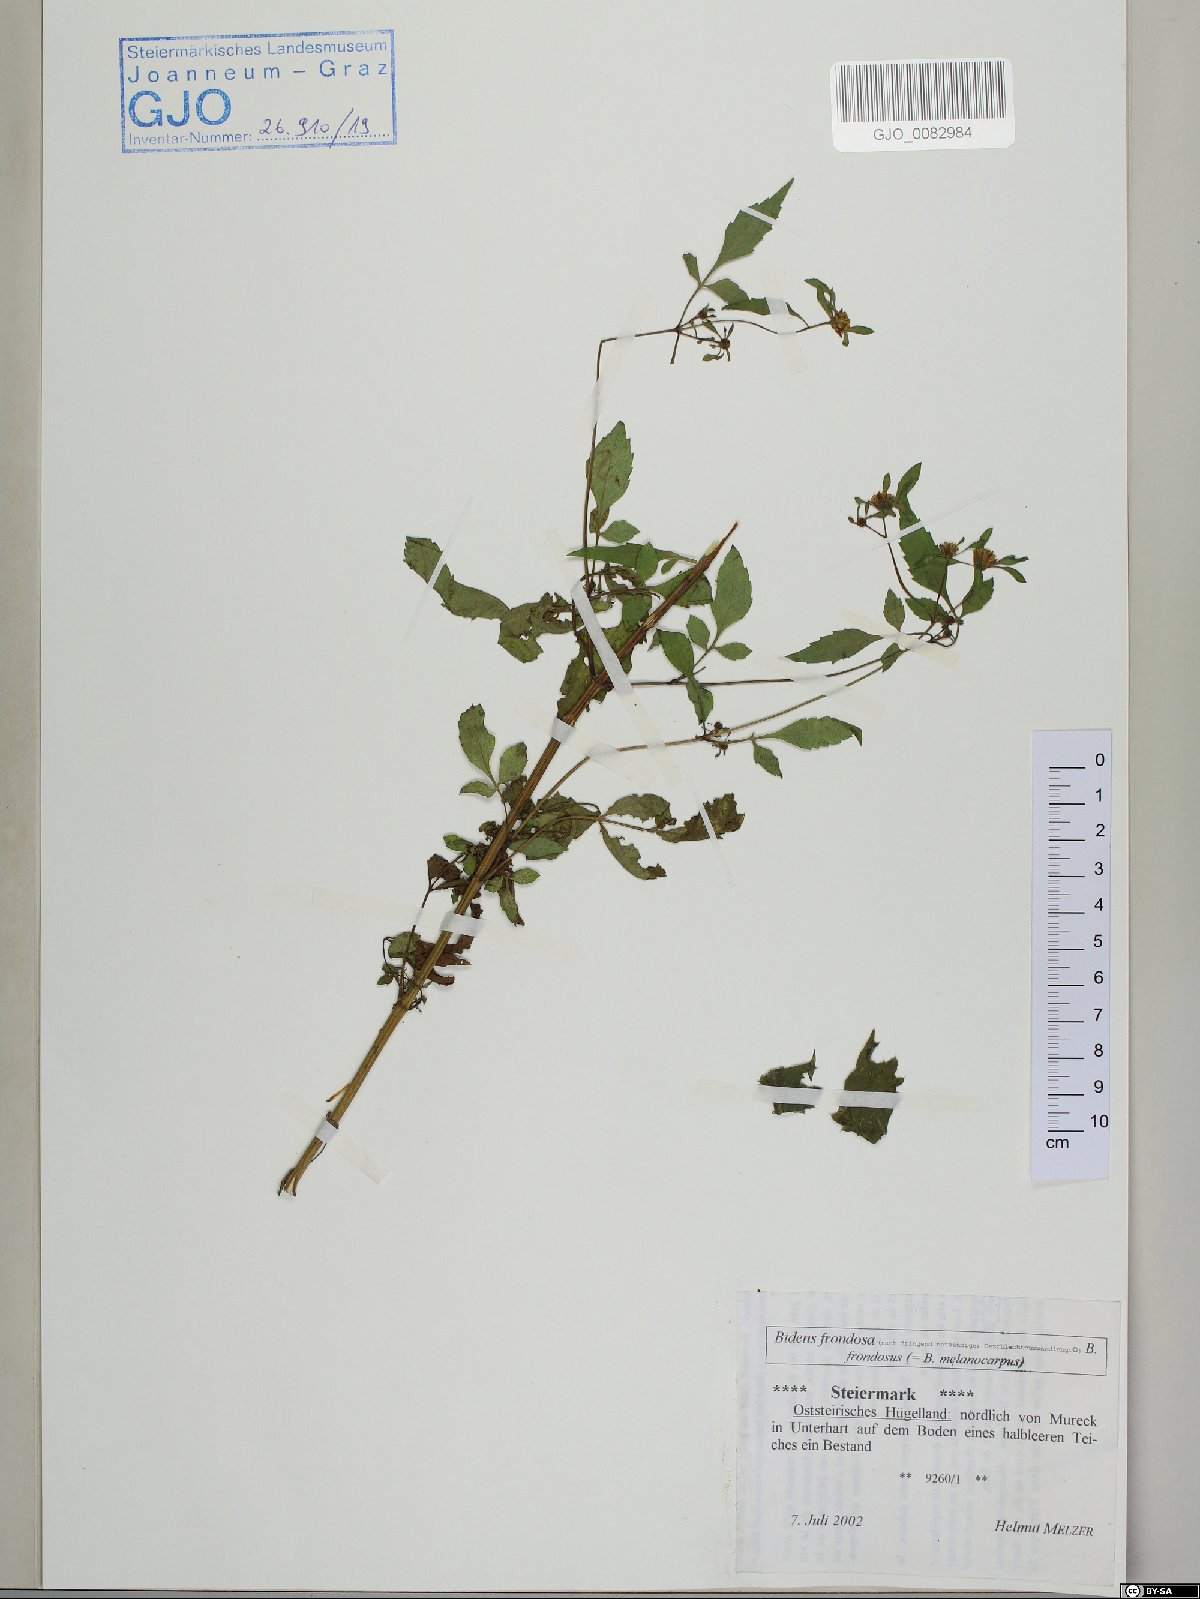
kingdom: Plantae
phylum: Tracheophyta
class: Magnoliopsida
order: Asterales
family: Asteraceae
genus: Bidens
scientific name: Bidens frondosa
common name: Beggarticks
